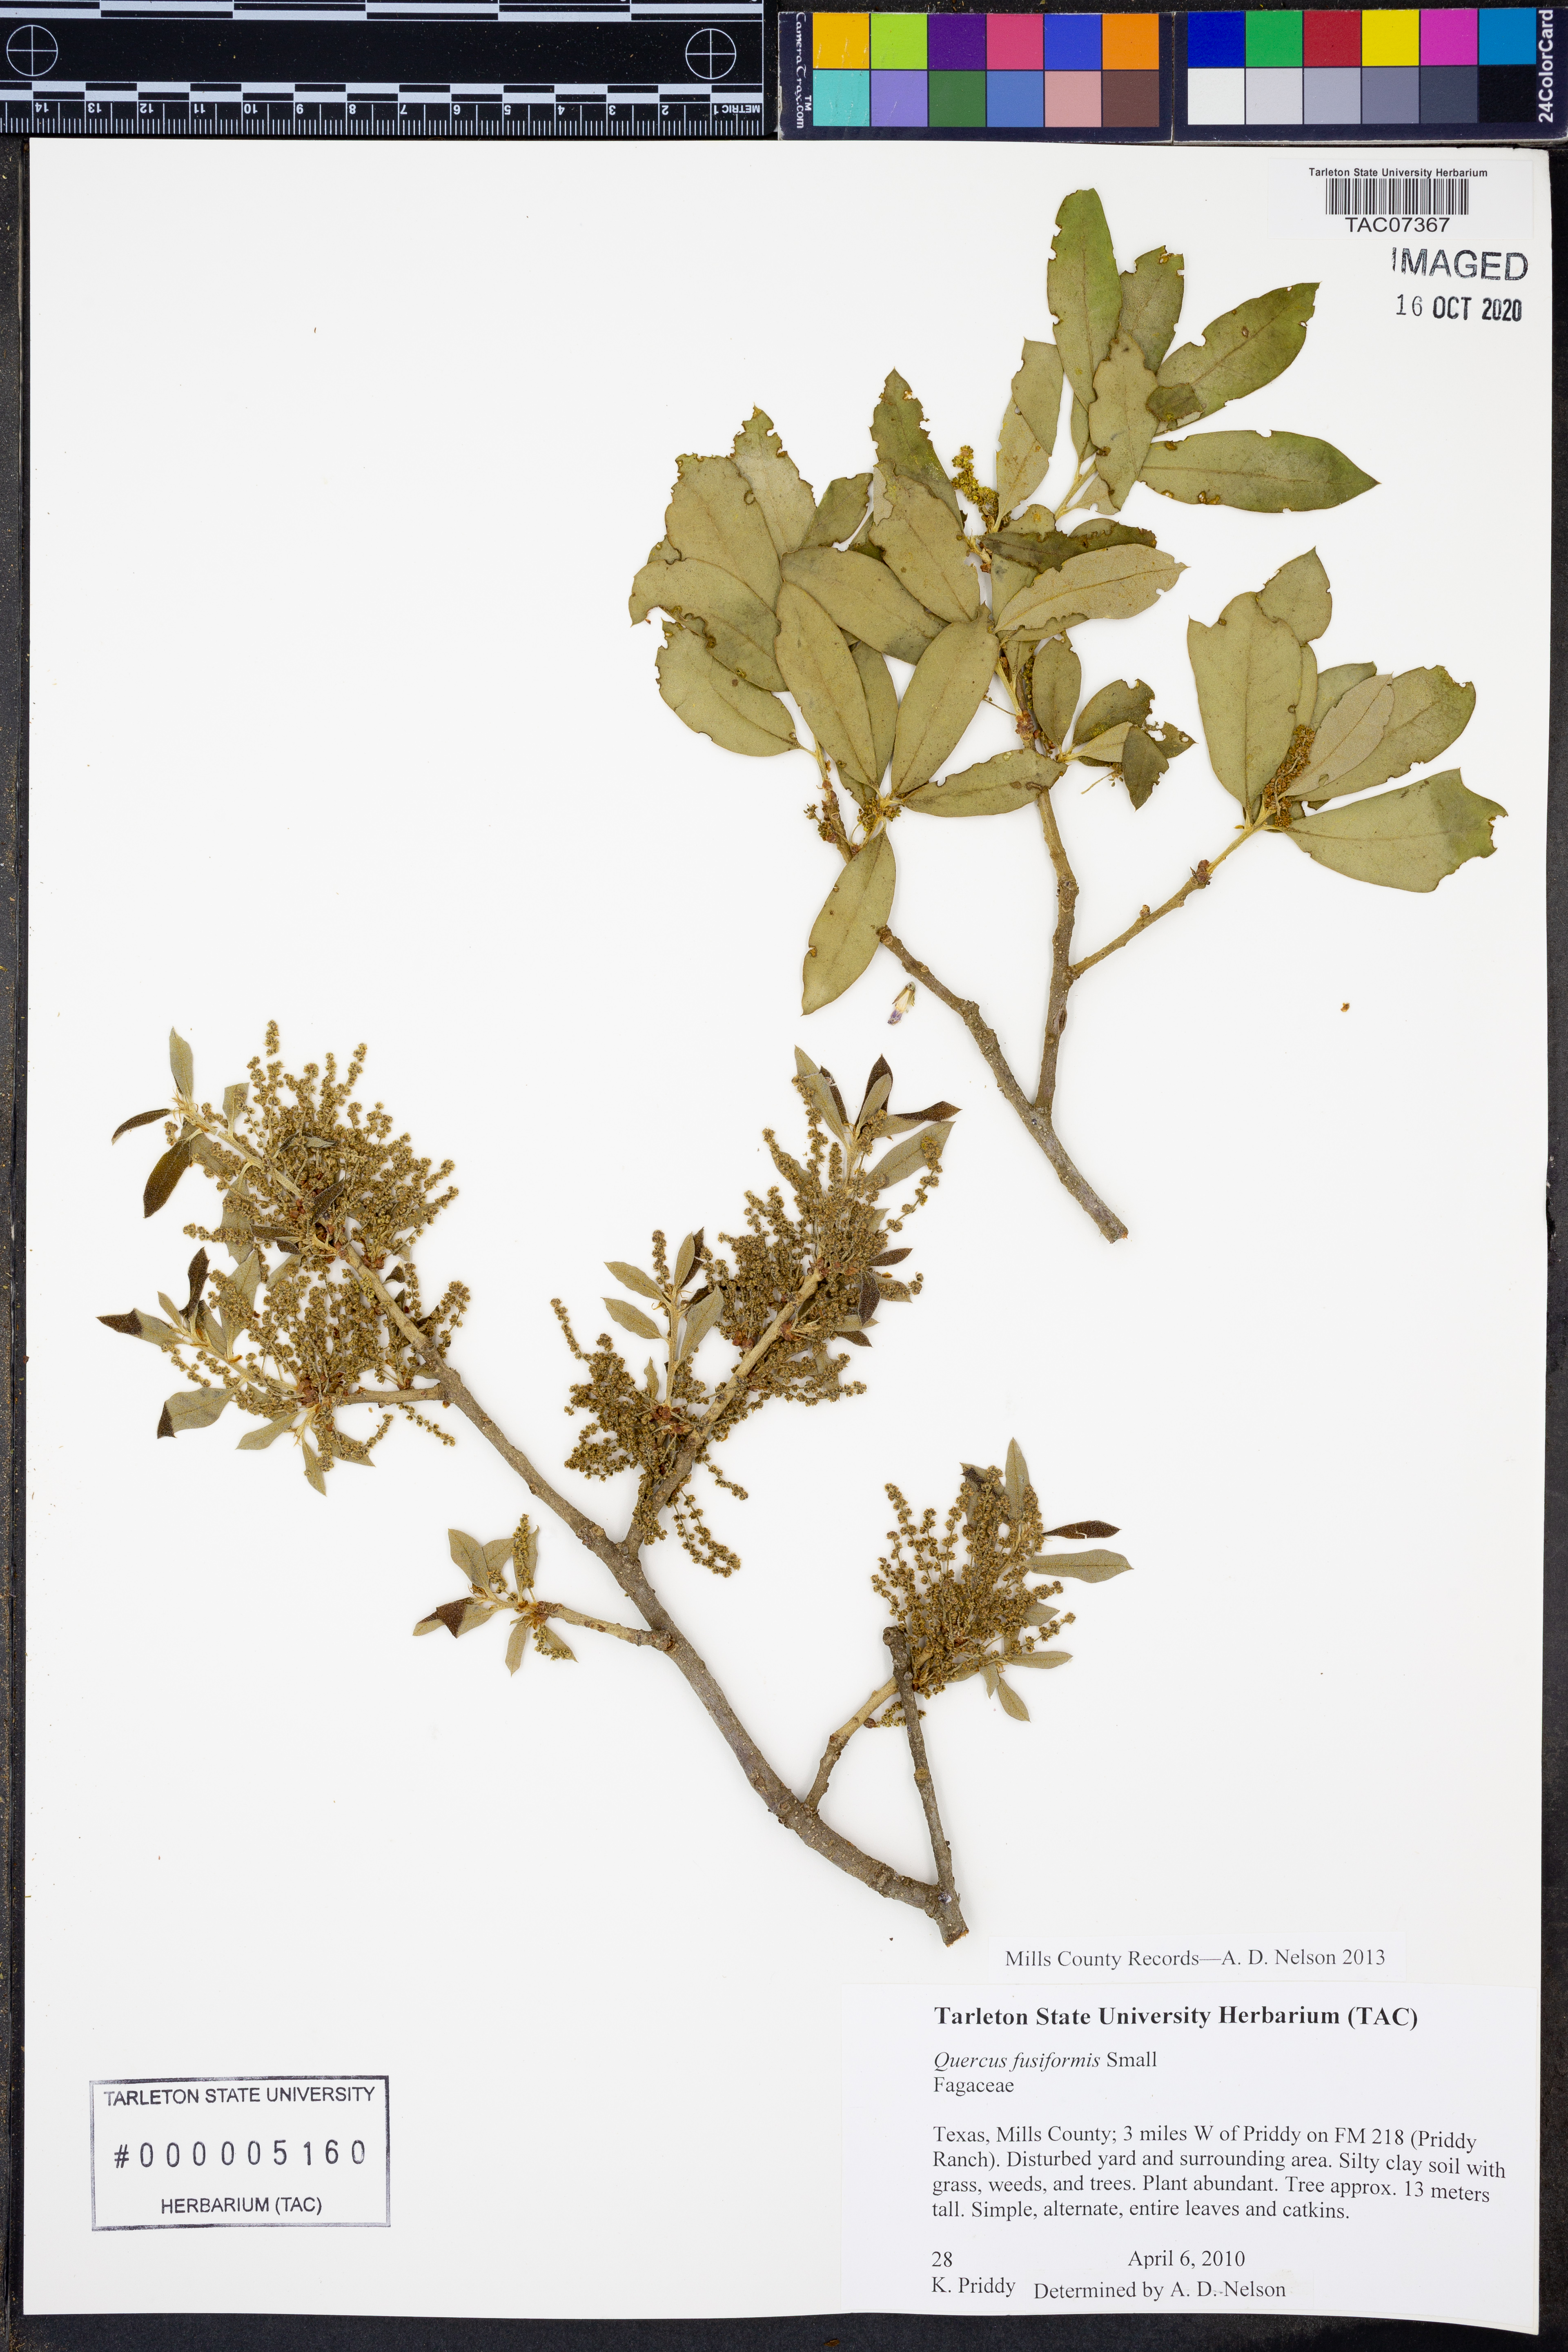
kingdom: Plantae
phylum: Tracheophyta
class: Magnoliopsida
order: Fagales
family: Fagaceae
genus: Quercus
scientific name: Quercus fusiformis
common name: Texas live oak
